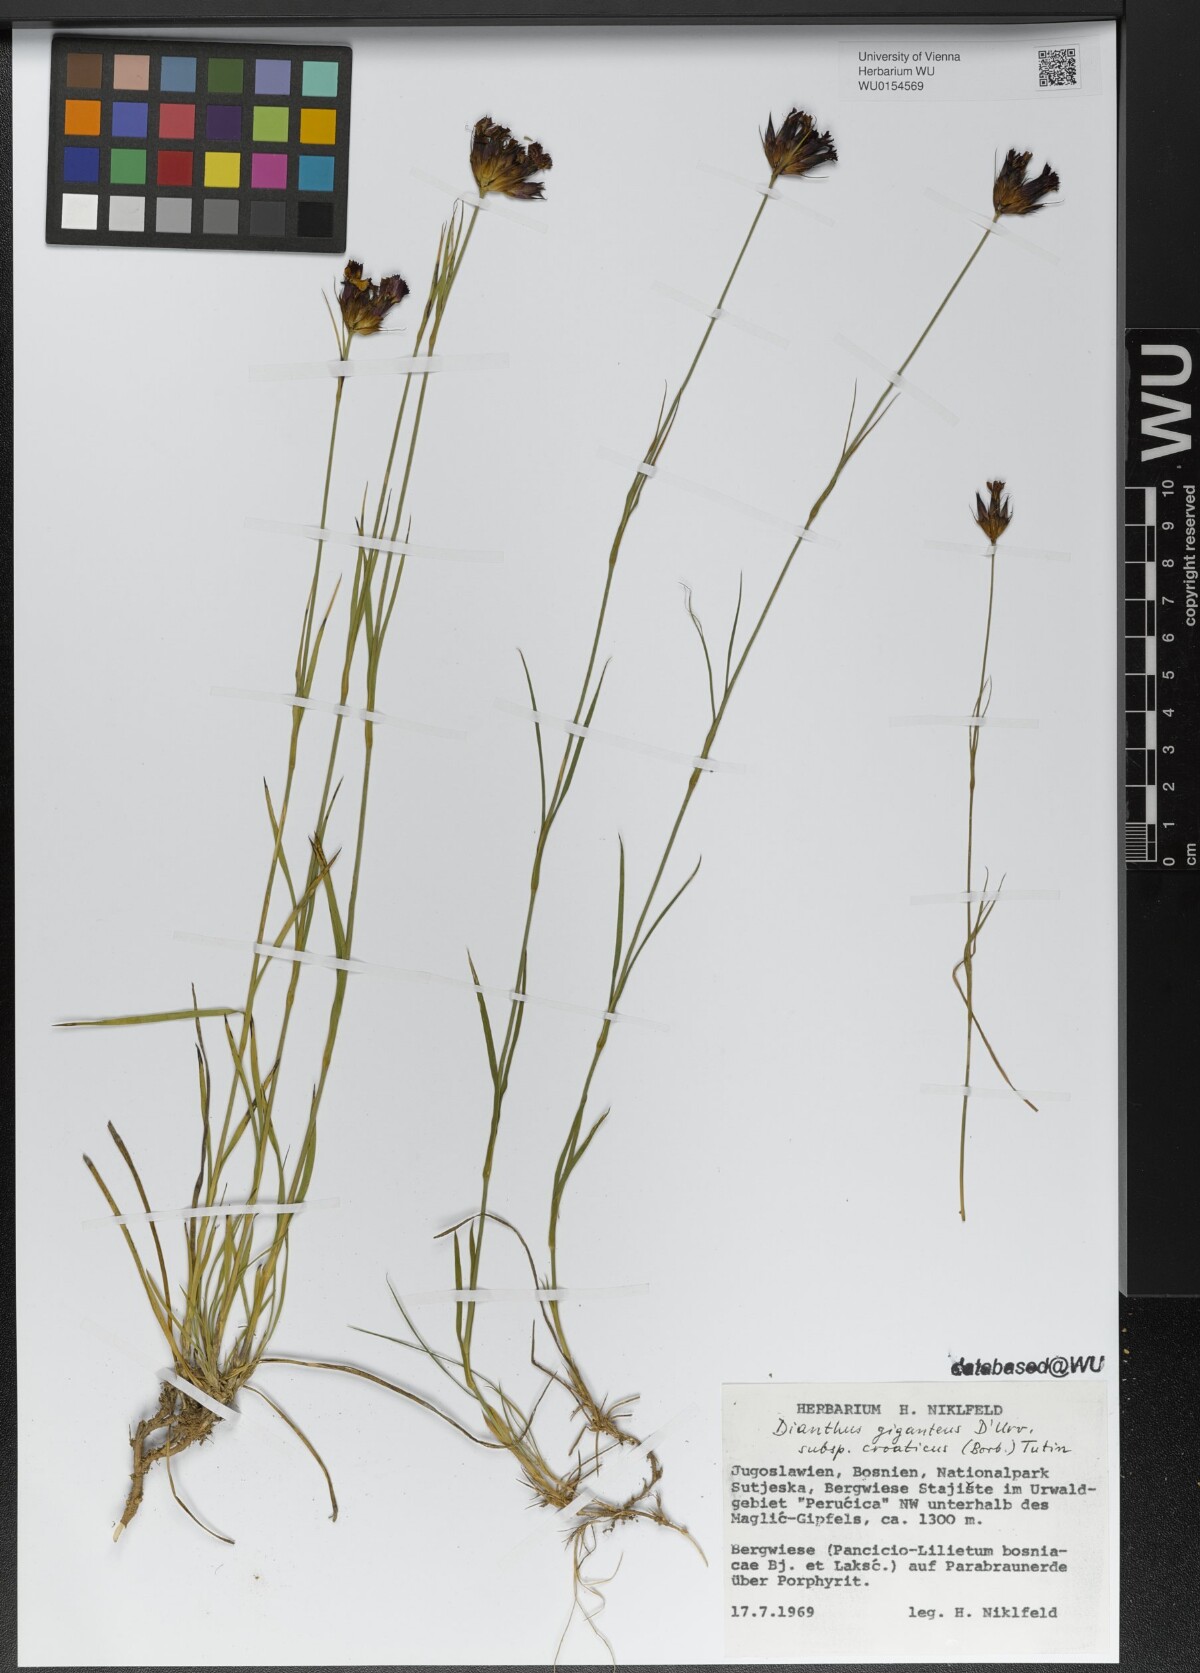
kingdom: Plantae
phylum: Tracheophyta
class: Magnoliopsida
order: Caryophyllales
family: Caryophyllaceae
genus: Dianthus
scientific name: Dianthus giganteus
